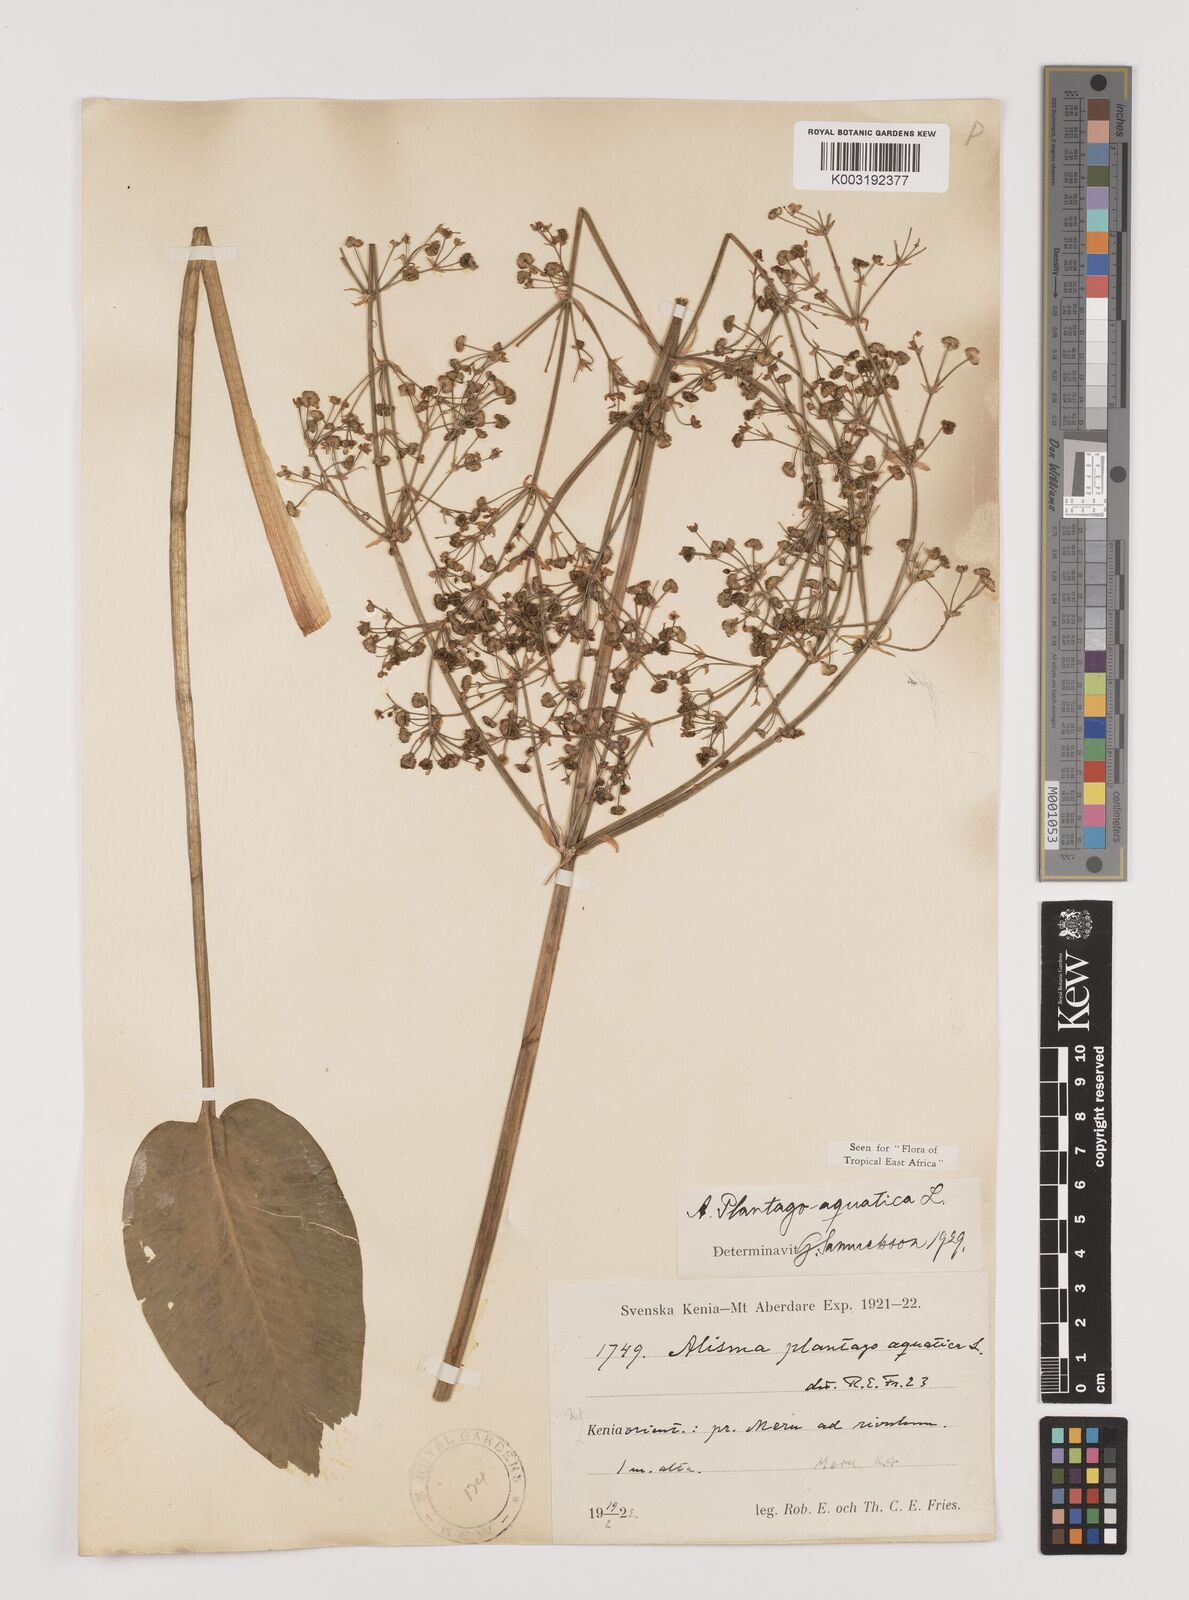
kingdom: Plantae
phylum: Tracheophyta
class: Liliopsida
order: Alismatales
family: Alismataceae
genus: Alisma
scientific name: Alisma plantago-aquatica
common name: Water-plantain
